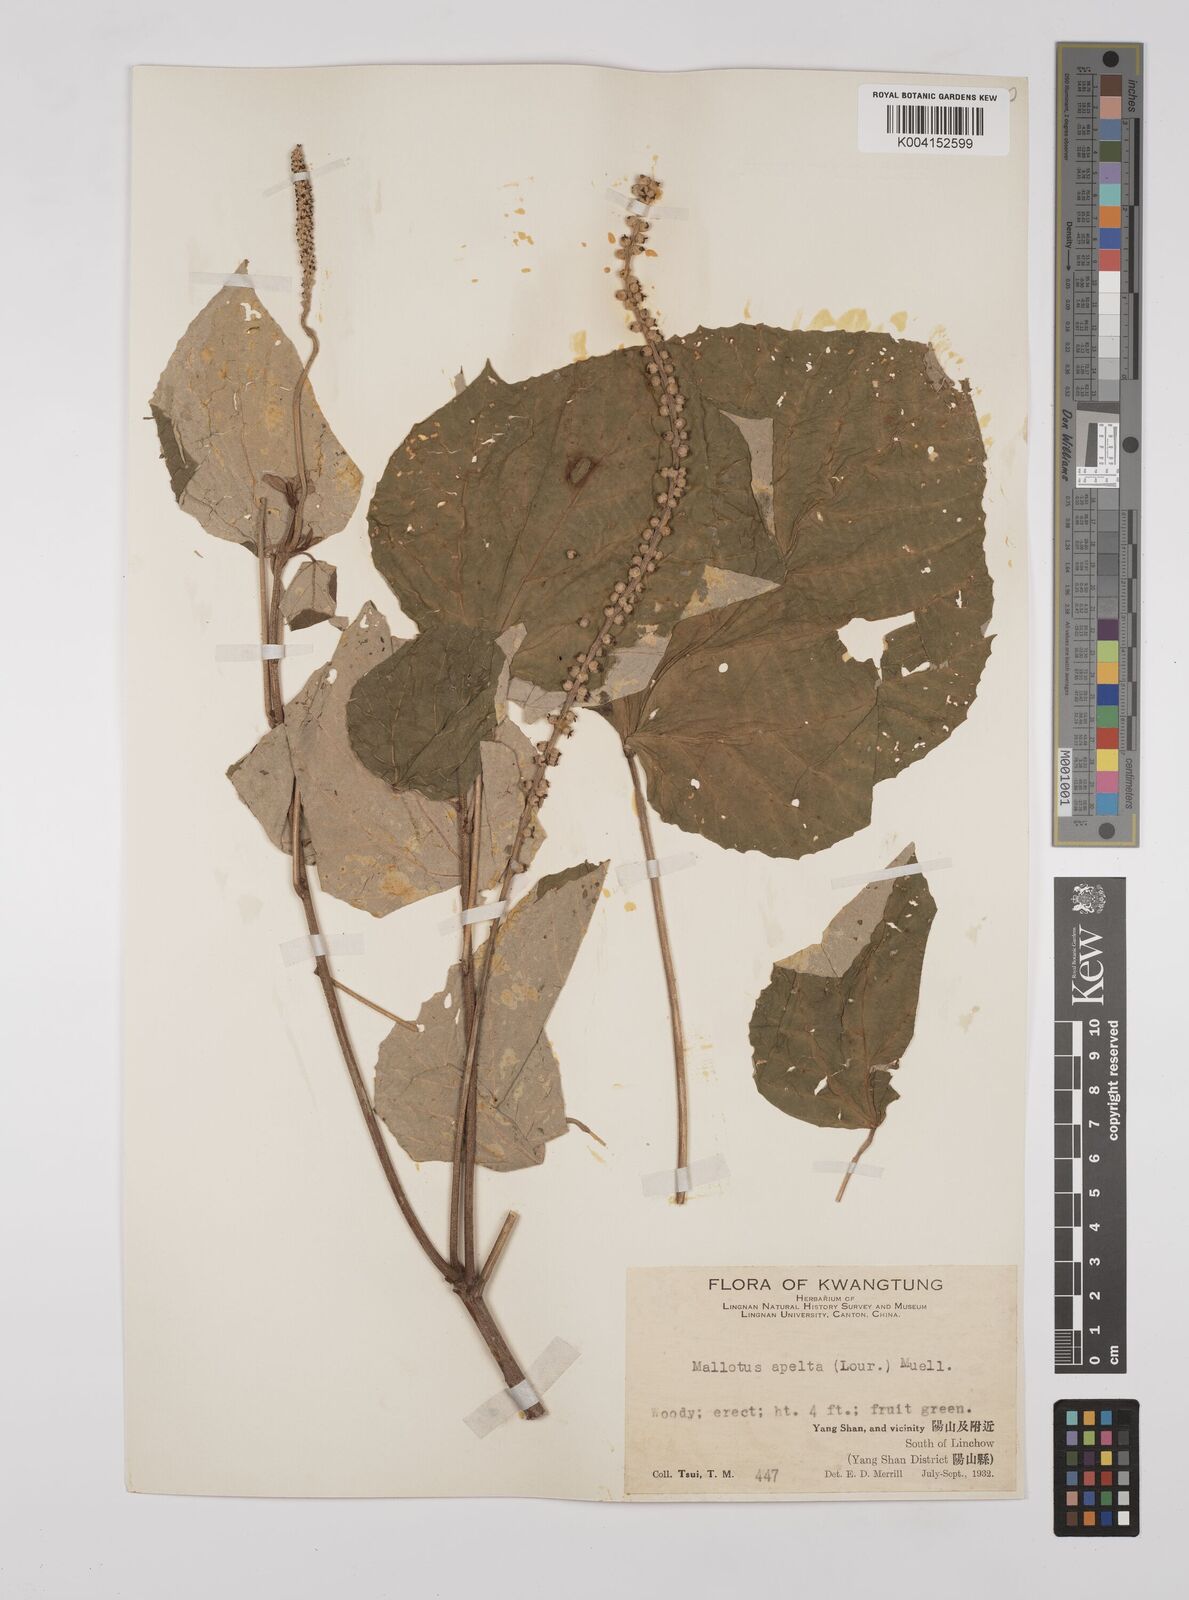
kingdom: Plantae
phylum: Tracheophyta
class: Magnoliopsida
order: Malpighiales
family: Euphorbiaceae
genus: Mallotus
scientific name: Mallotus apelta
